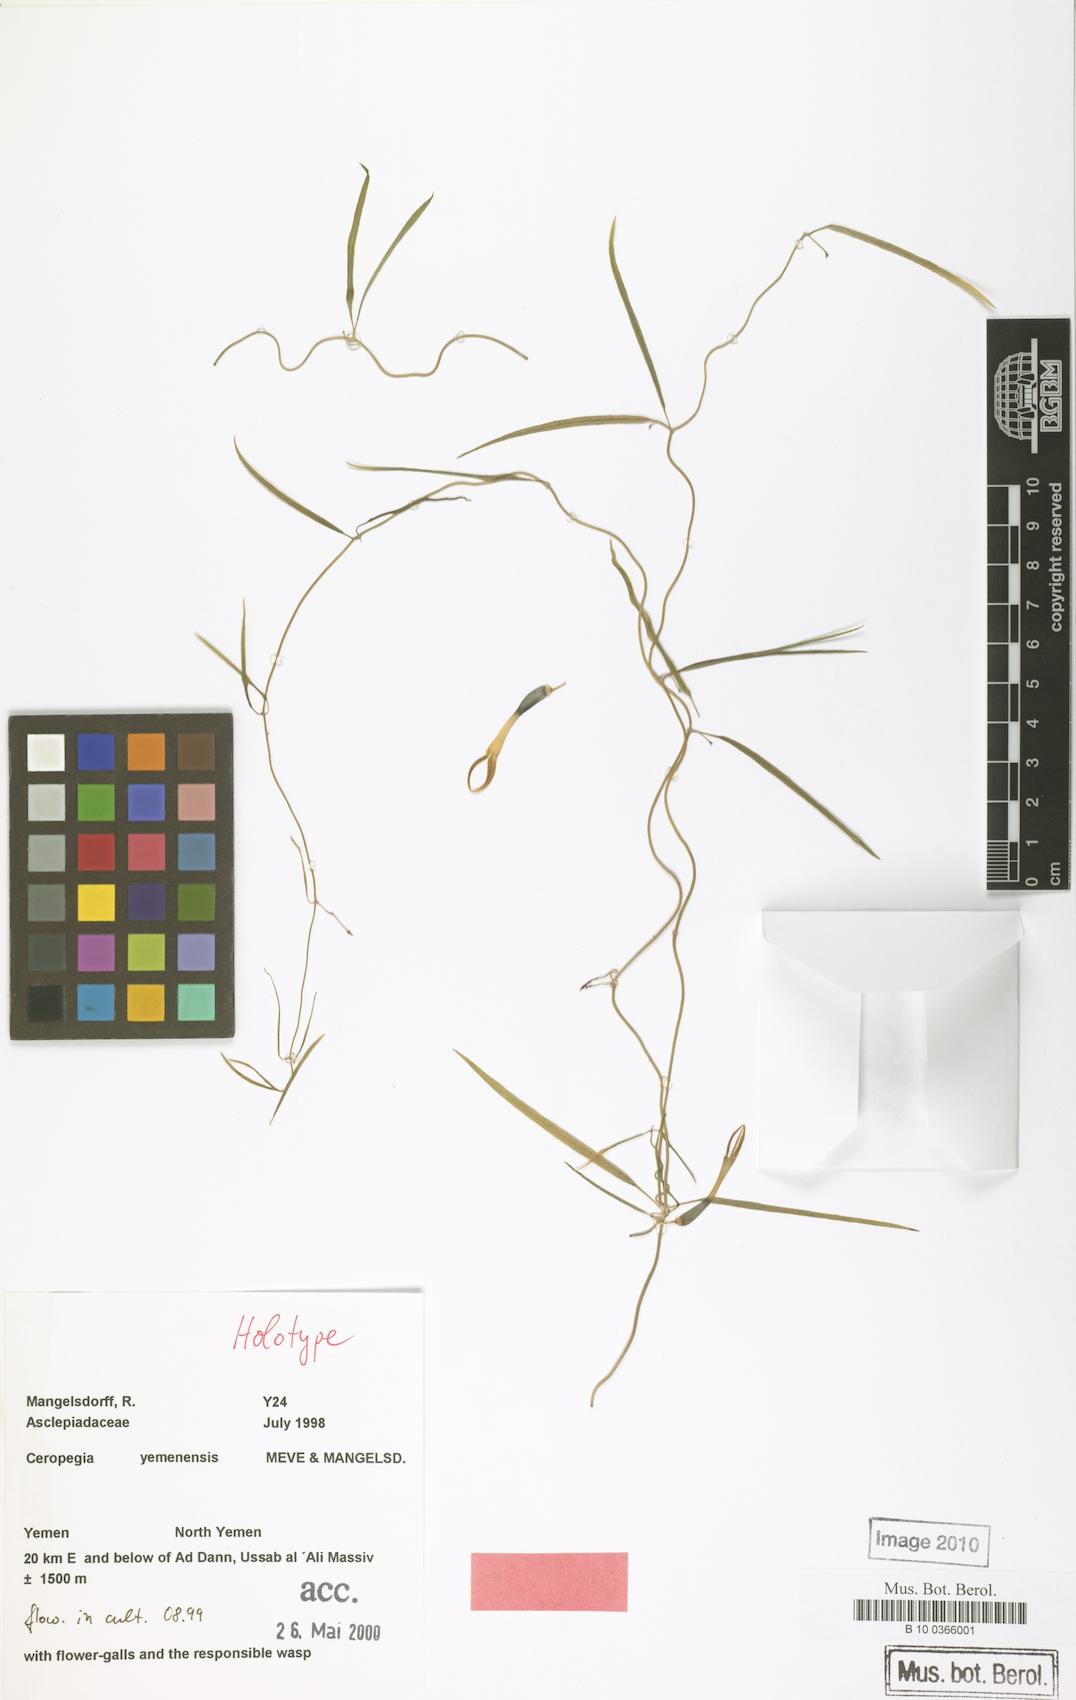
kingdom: Plantae
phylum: Tracheophyta
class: Magnoliopsida
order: Gentianales
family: Apocynaceae
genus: Ceropegia
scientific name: Ceropegia yemenensis
